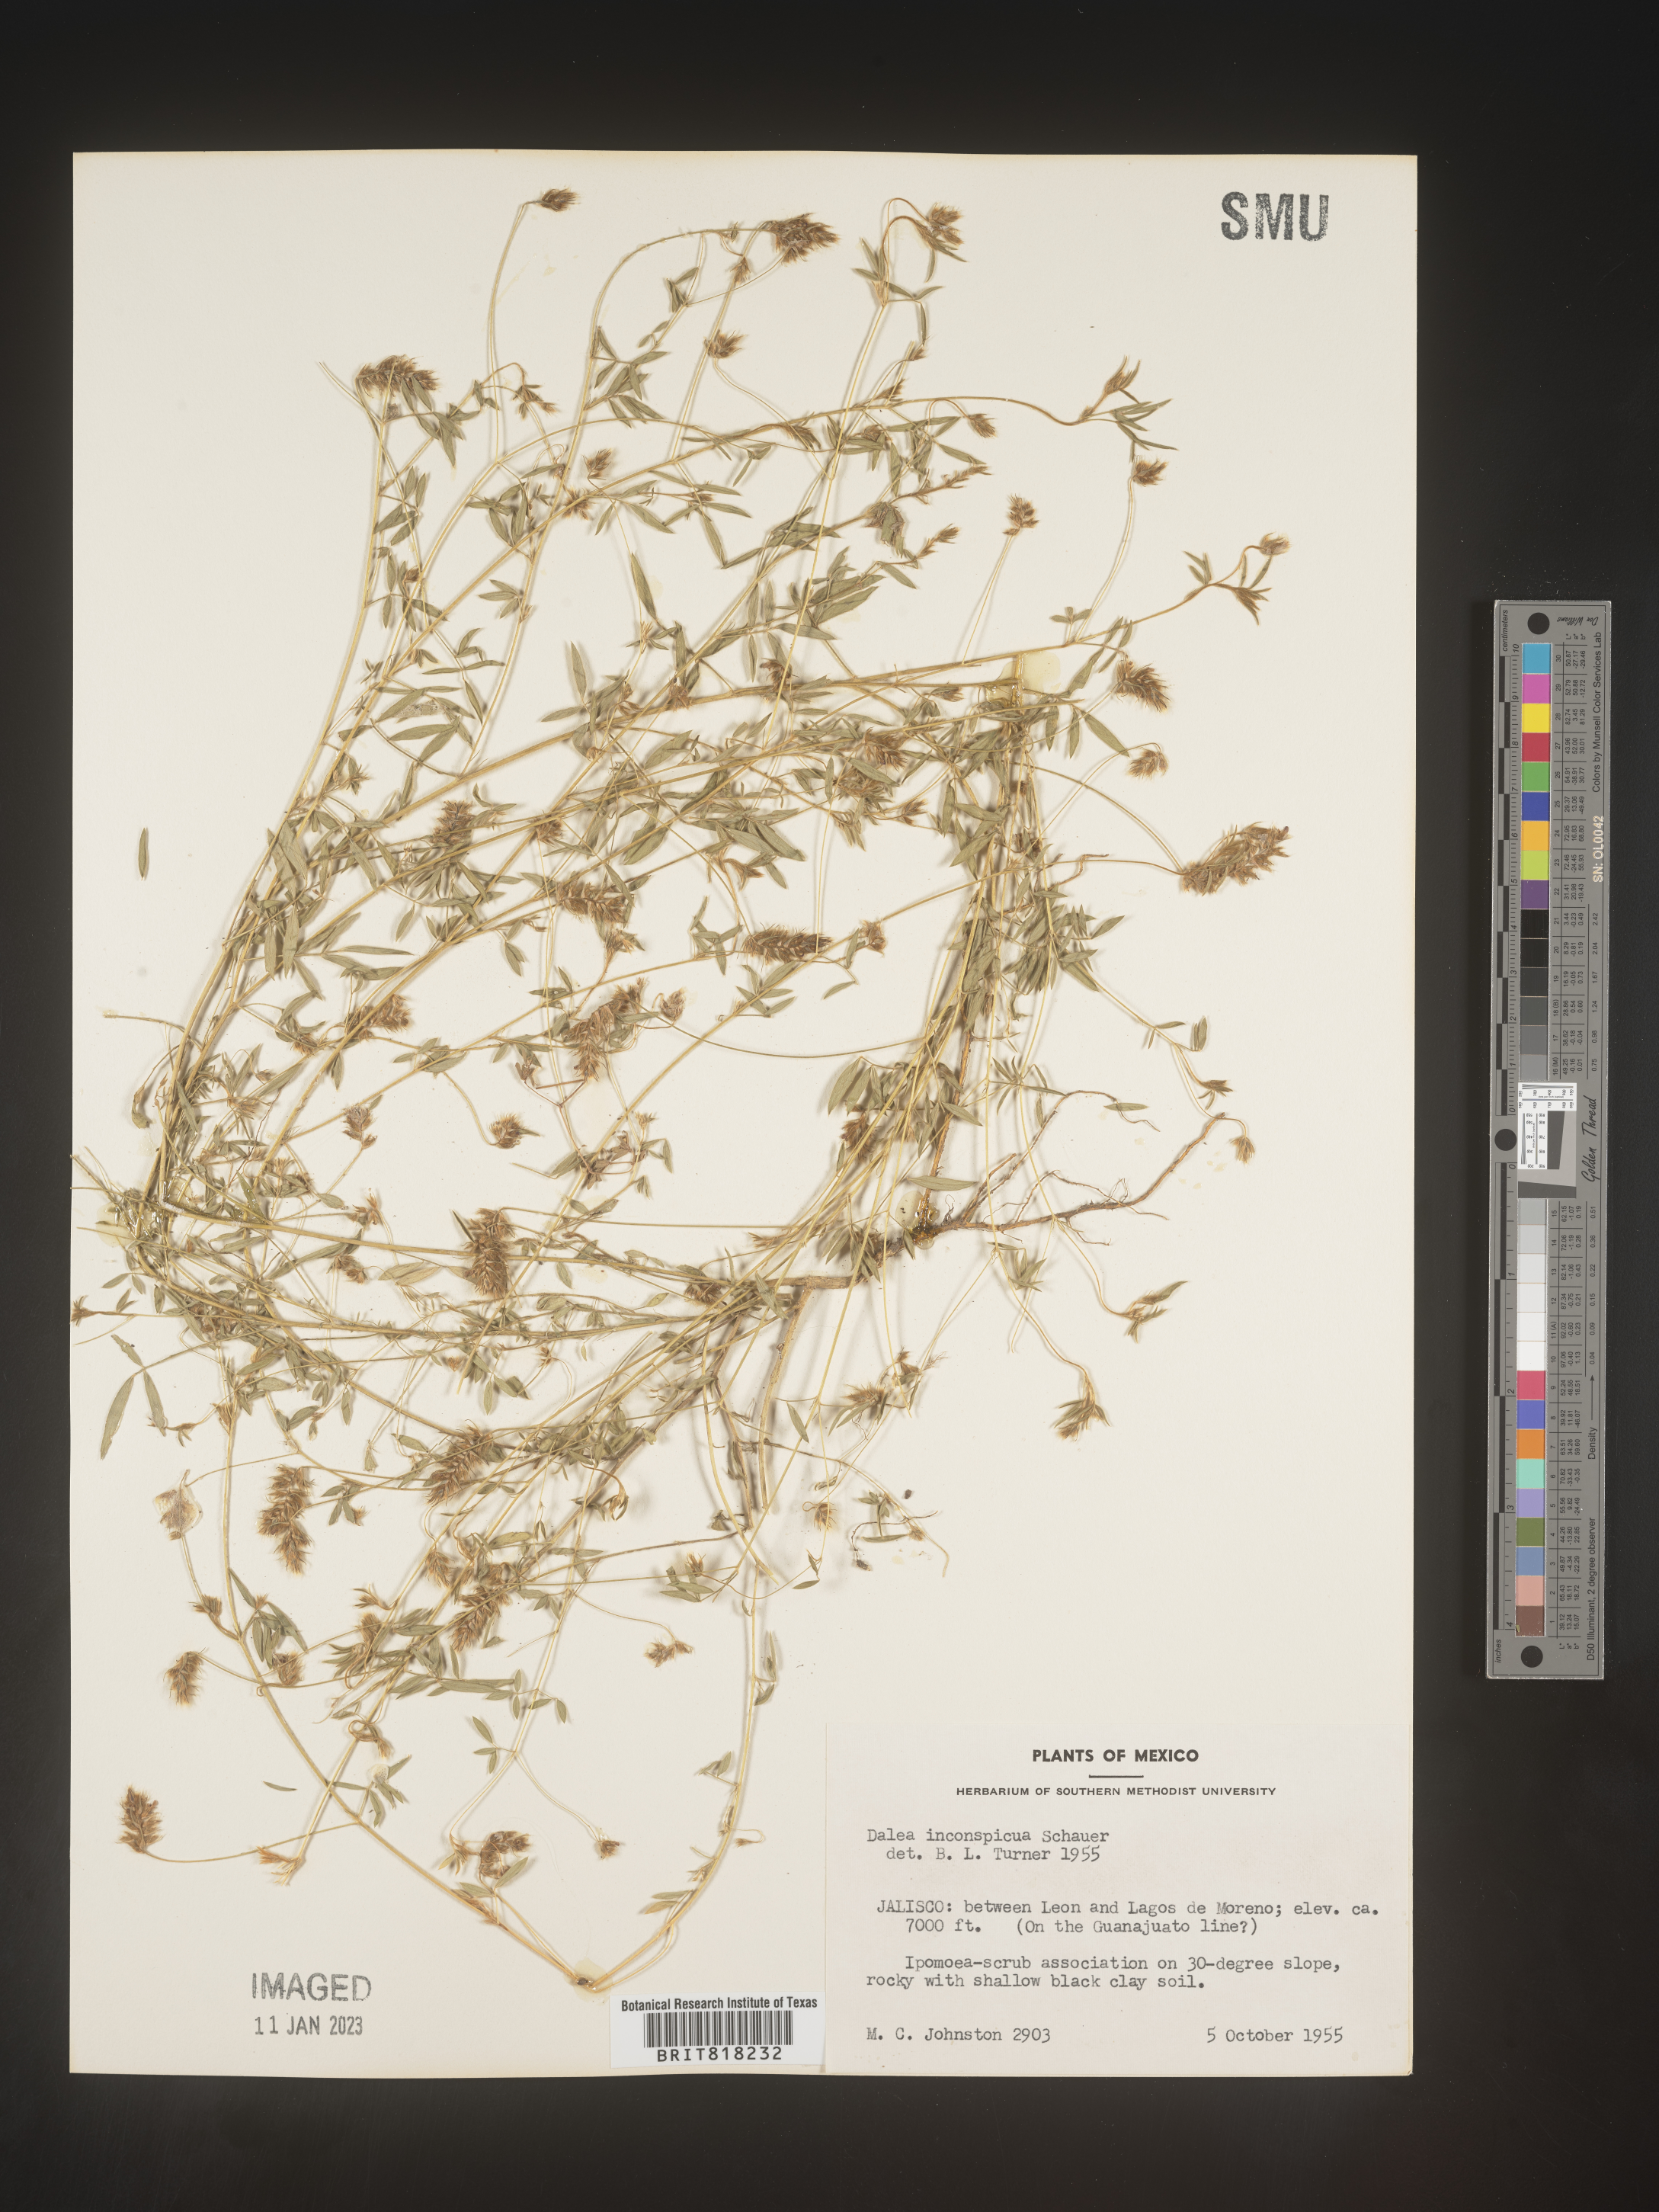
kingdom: Plantae
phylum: Tracheophyta
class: Magnoliopsida
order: Fabales
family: Fabaceae
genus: Dalea
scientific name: Dalea
